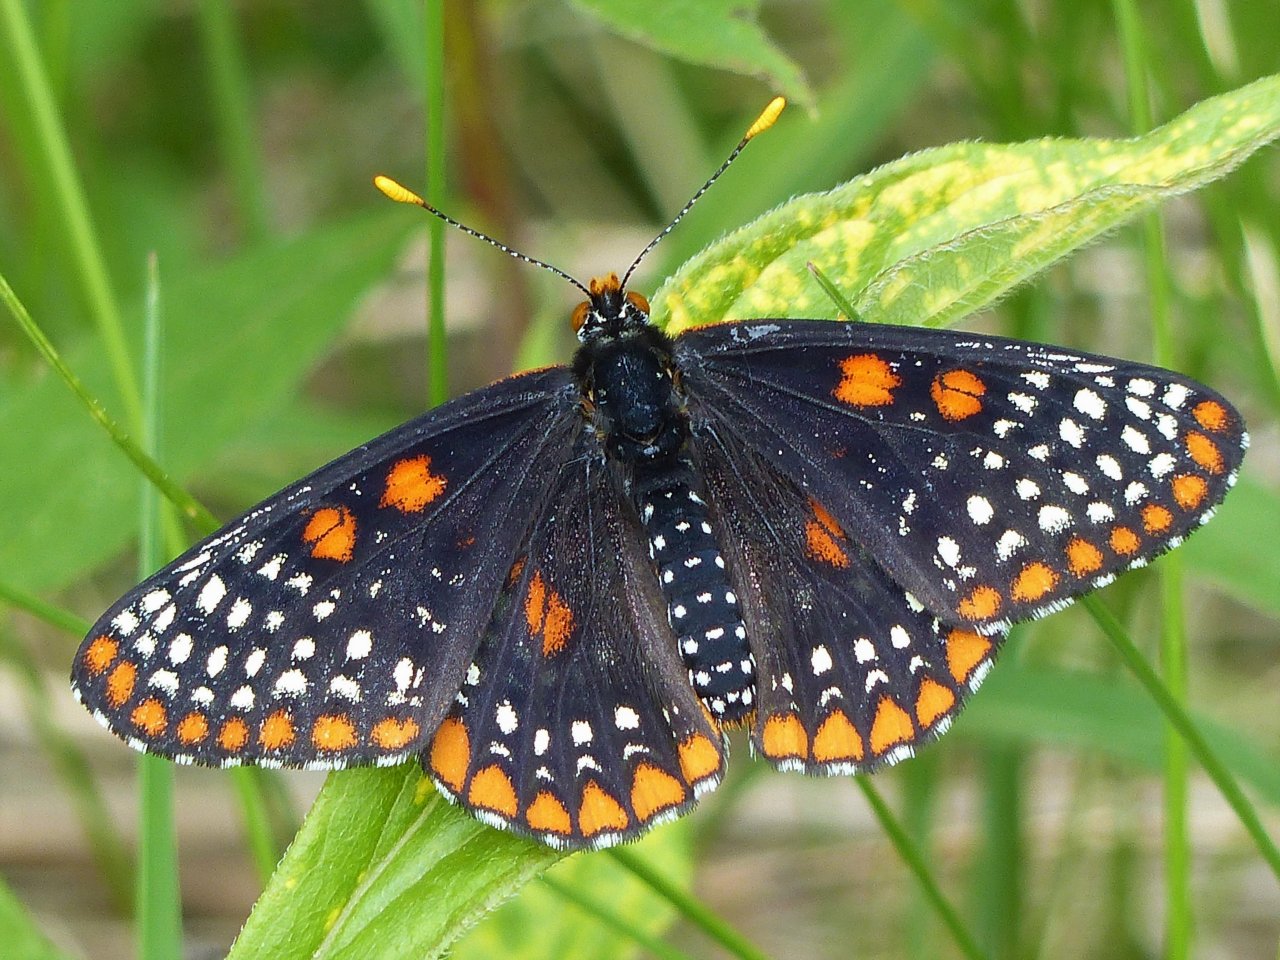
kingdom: Animalia
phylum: Arthropoda
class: Insecta
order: Lepidoptera
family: Nymphalidae
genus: Euphydryas
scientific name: Euphydryas phaeton
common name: Baltimore Checkerspot
